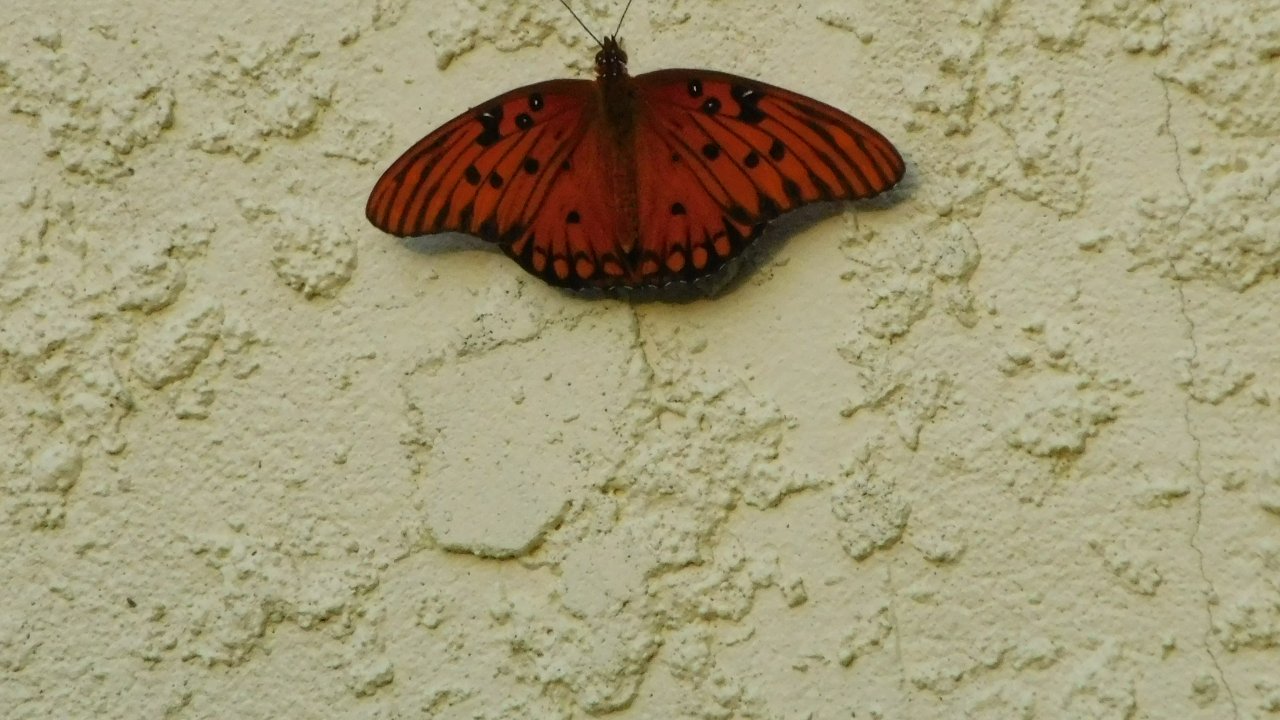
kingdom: Animalia
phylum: Arthropoda
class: Insecta
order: Lepidoptera
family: Nymphalidae
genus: Dione
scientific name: Dione vanillae
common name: Gulf Fritillary
